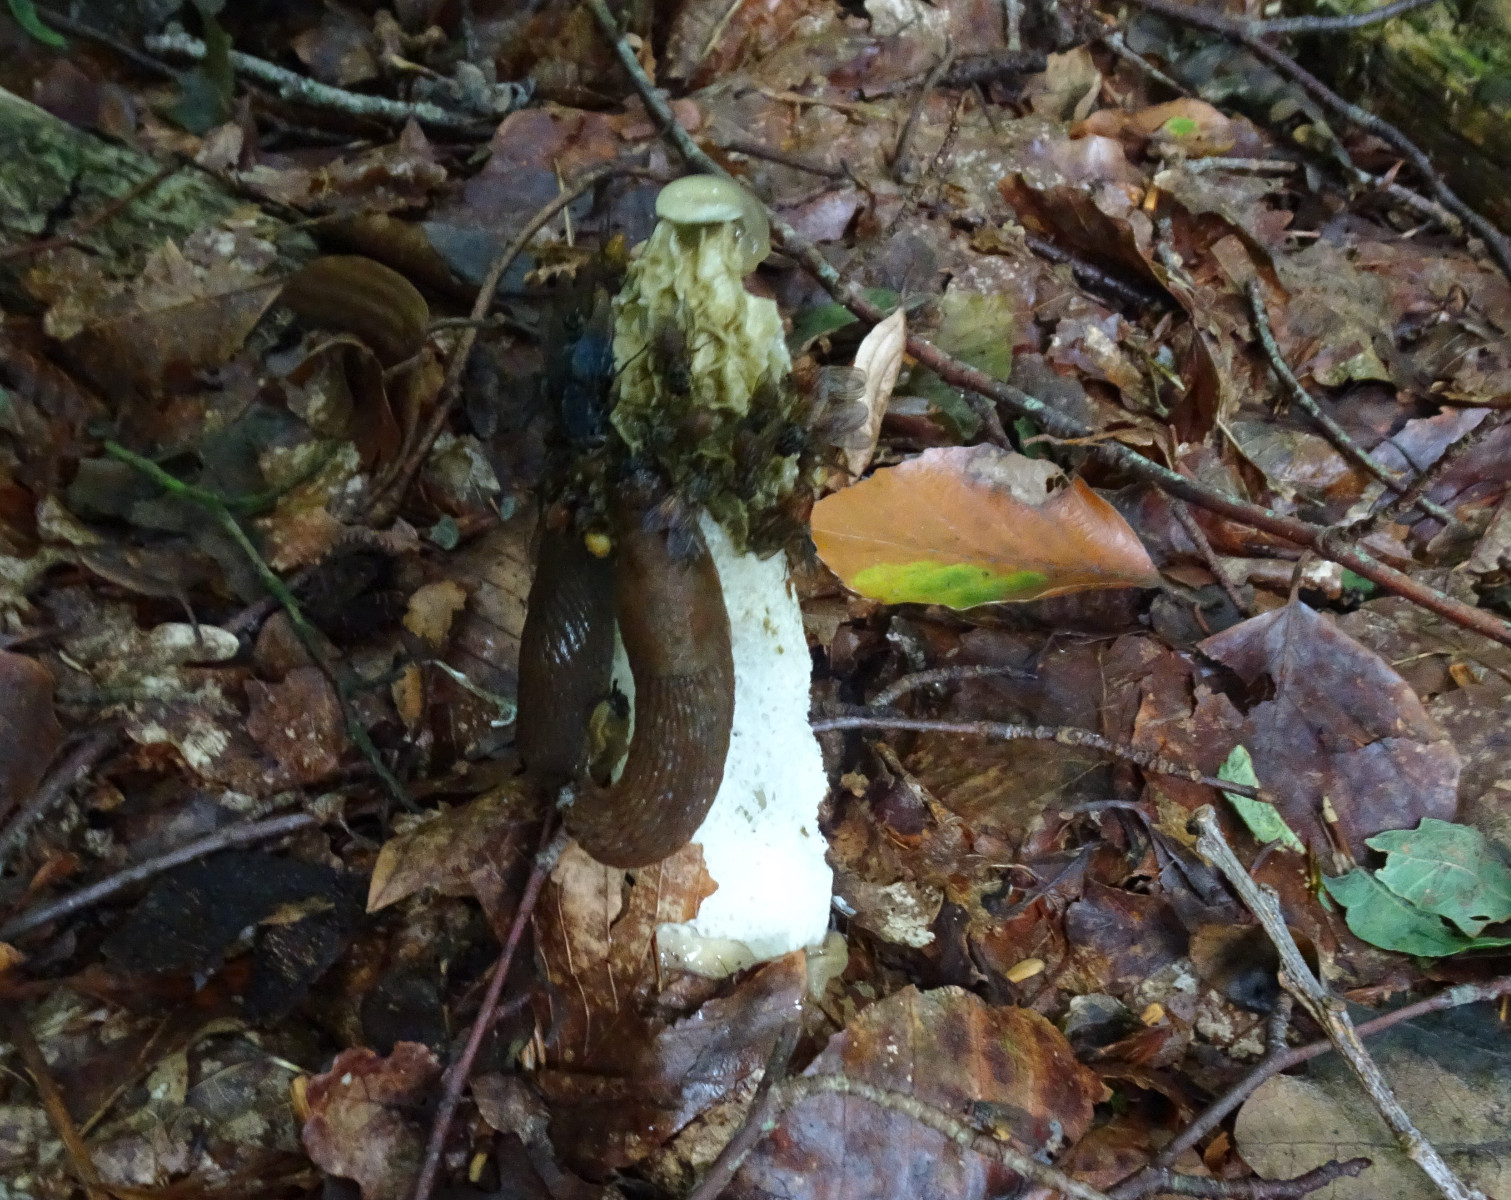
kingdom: Fungi
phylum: Basidiomycota
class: Agaricomycetes
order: Phallales
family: Phallaceae
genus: Phallus
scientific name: Phallus impudicus
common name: almindelig stinksvamp
